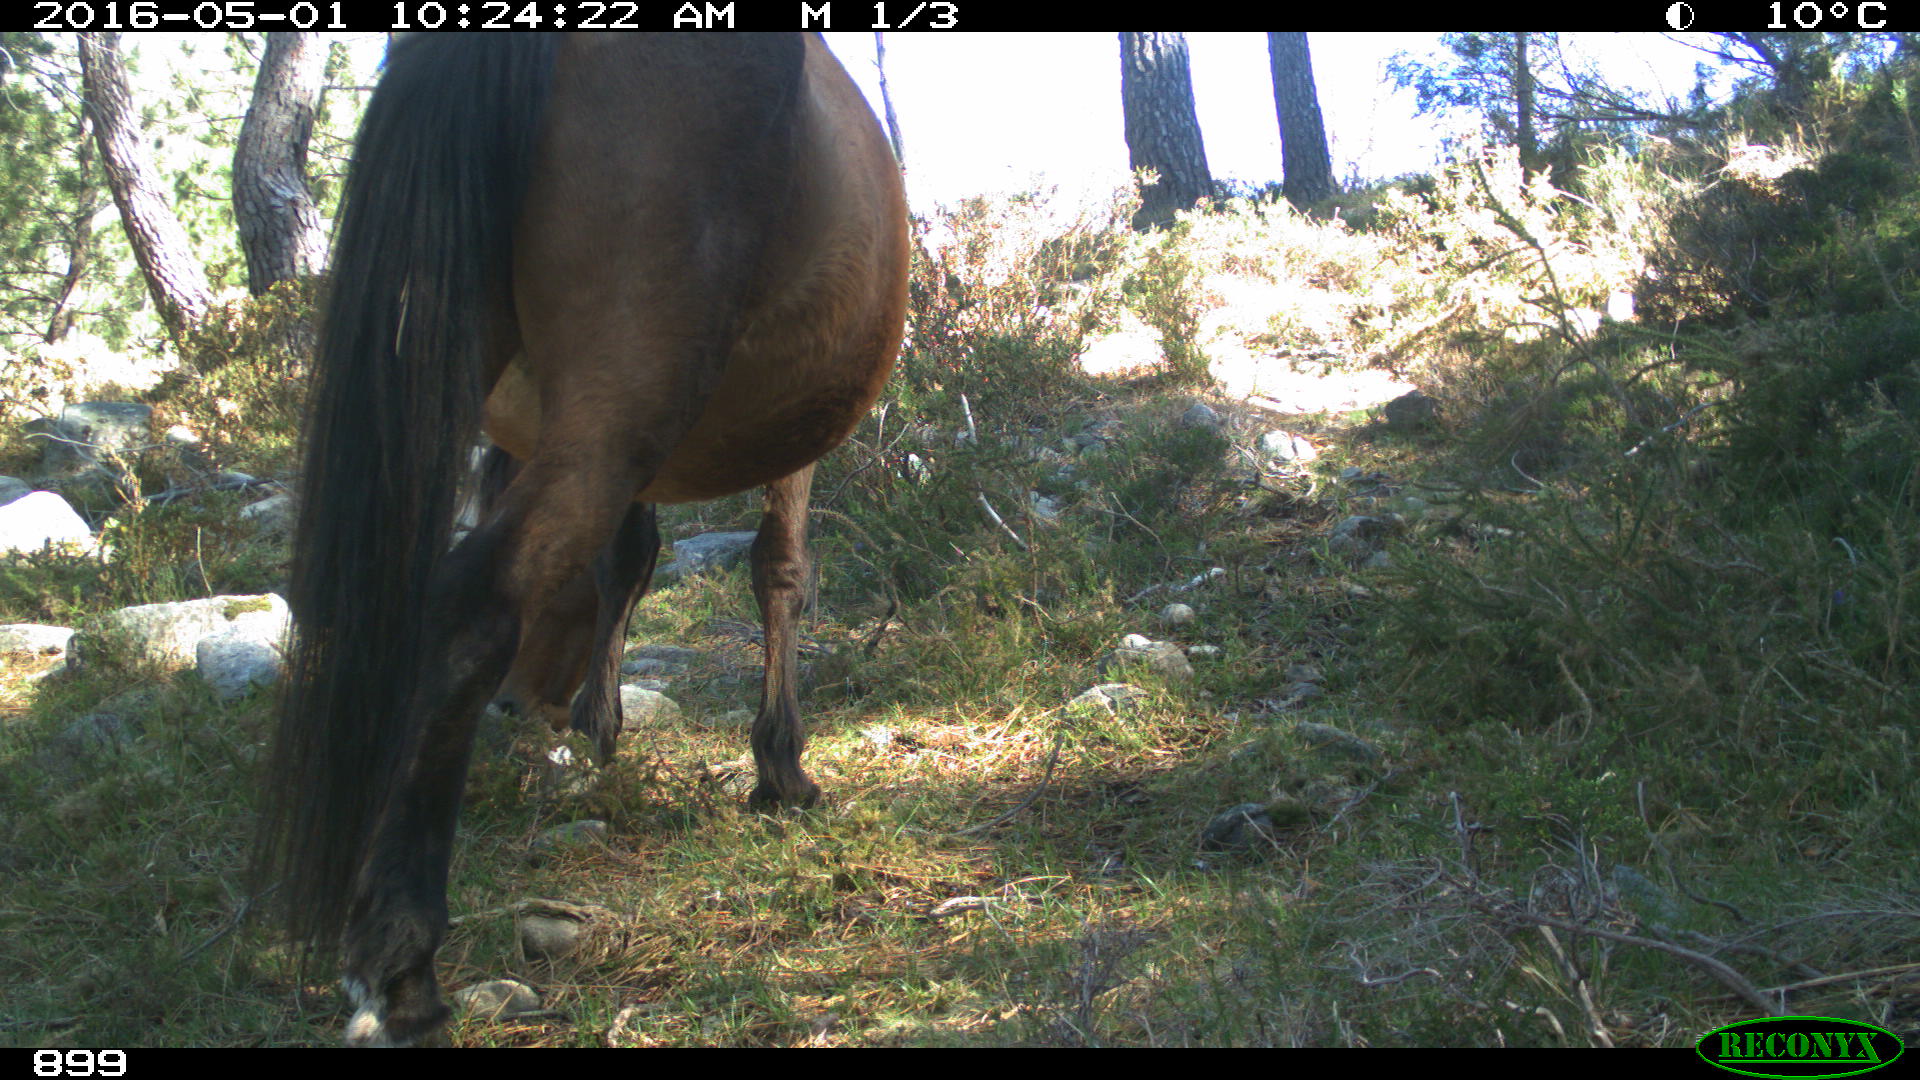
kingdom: Animalia
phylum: Chordata
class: Mammalia
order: Perissodactyla
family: Equidae
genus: Equus
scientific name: Equus caballus
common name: Horse
